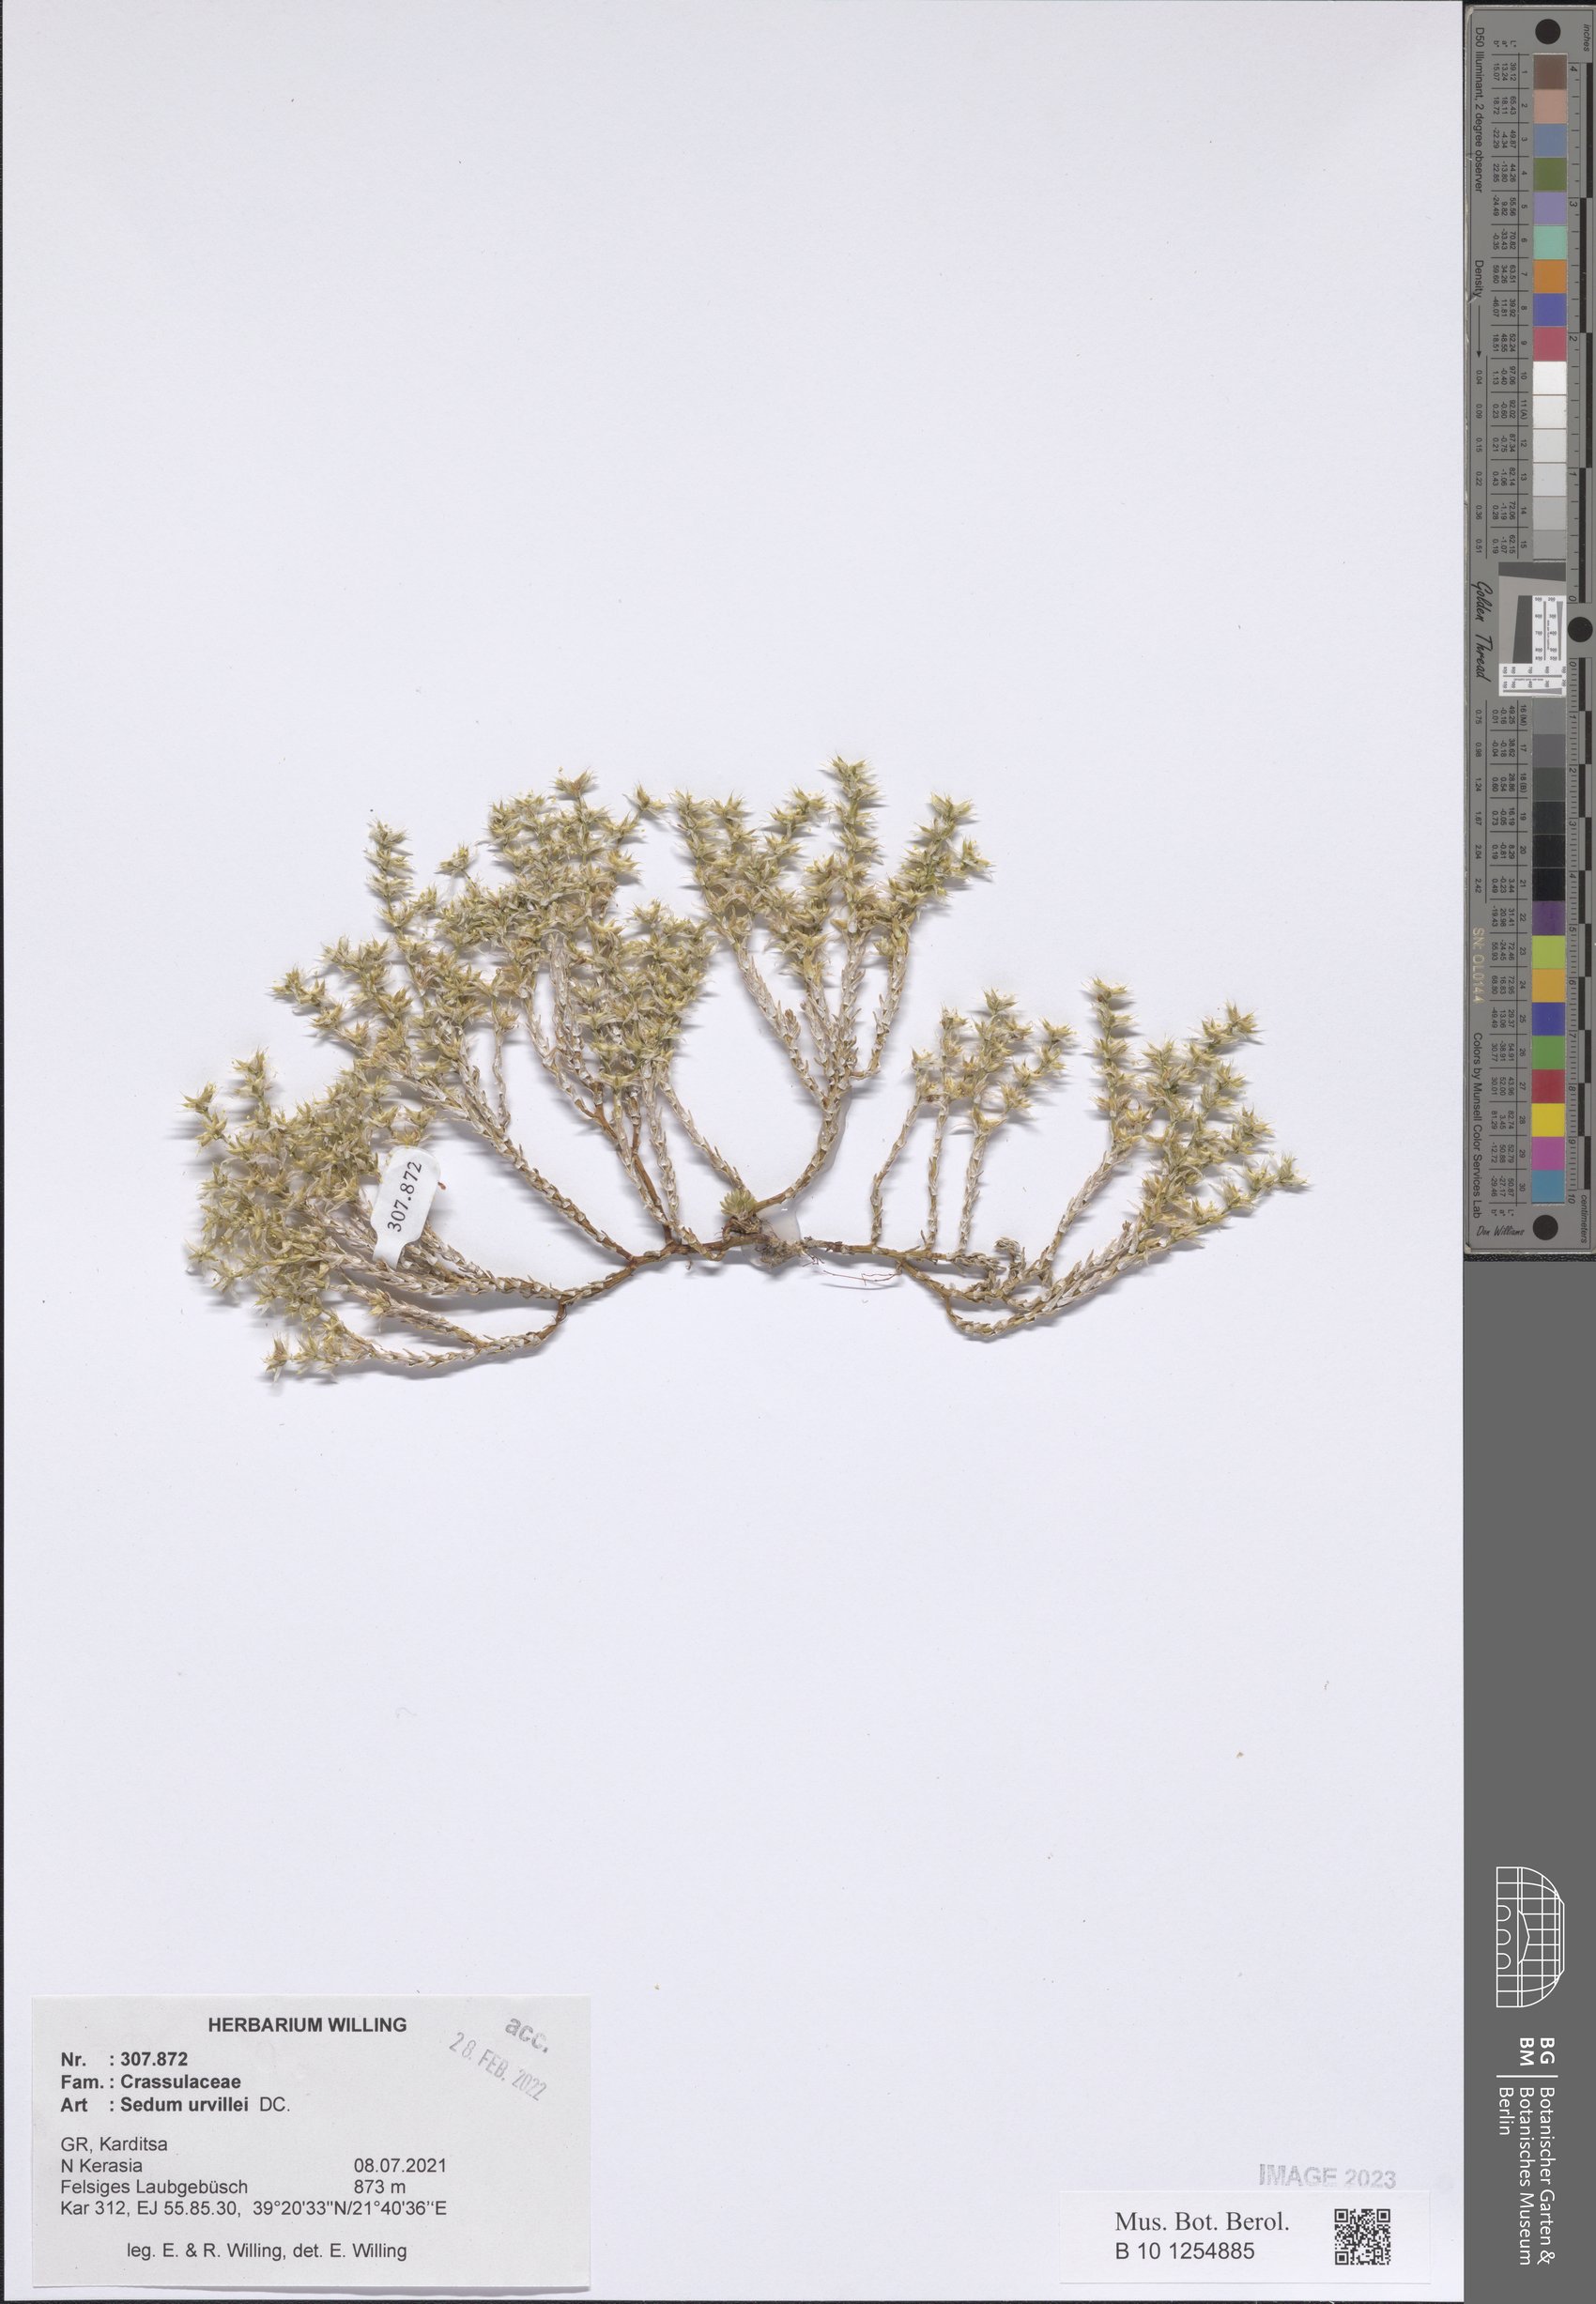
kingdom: Plantae
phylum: Tracheophyta
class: Magnoliopsida
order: Saxifragales
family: Crassulaceae
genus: Sedum
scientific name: Sedum urvillei
